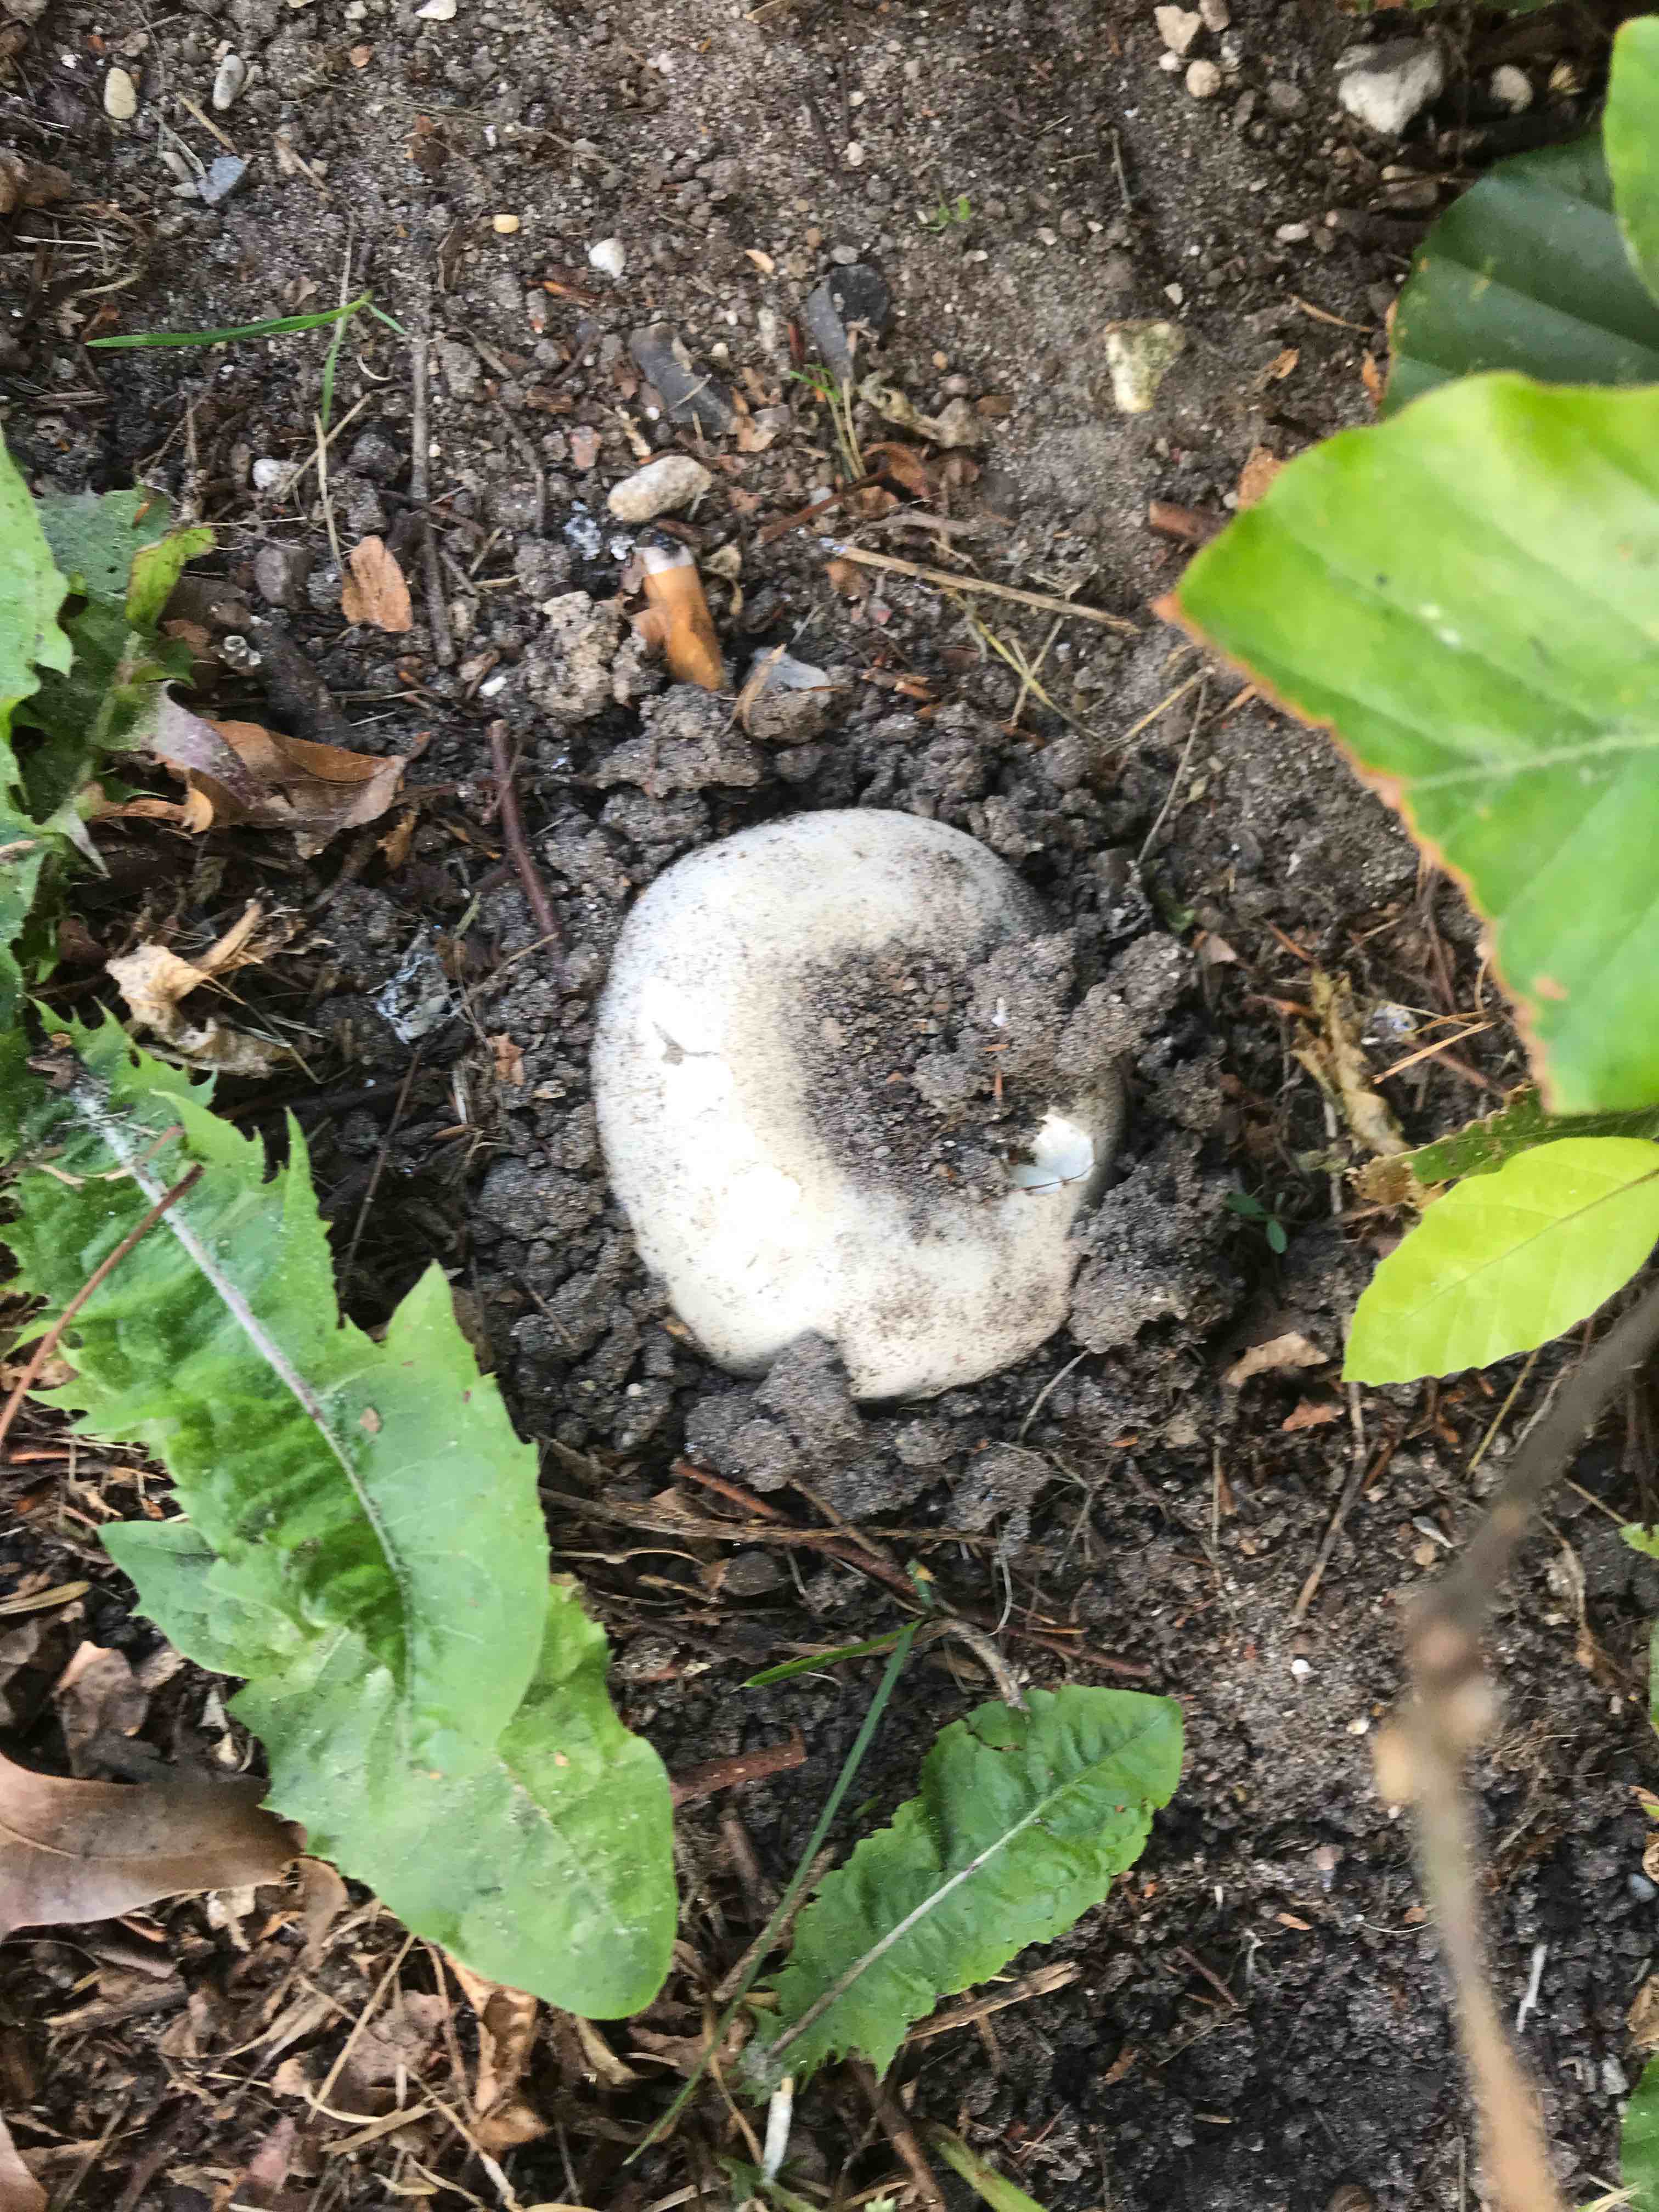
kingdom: Fungi
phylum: Basidiomycota
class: Agaricomycetes
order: Agaricales
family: Agaricaceae
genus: Agaricus
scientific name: Agaricus bitorquis
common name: vej-champignon
